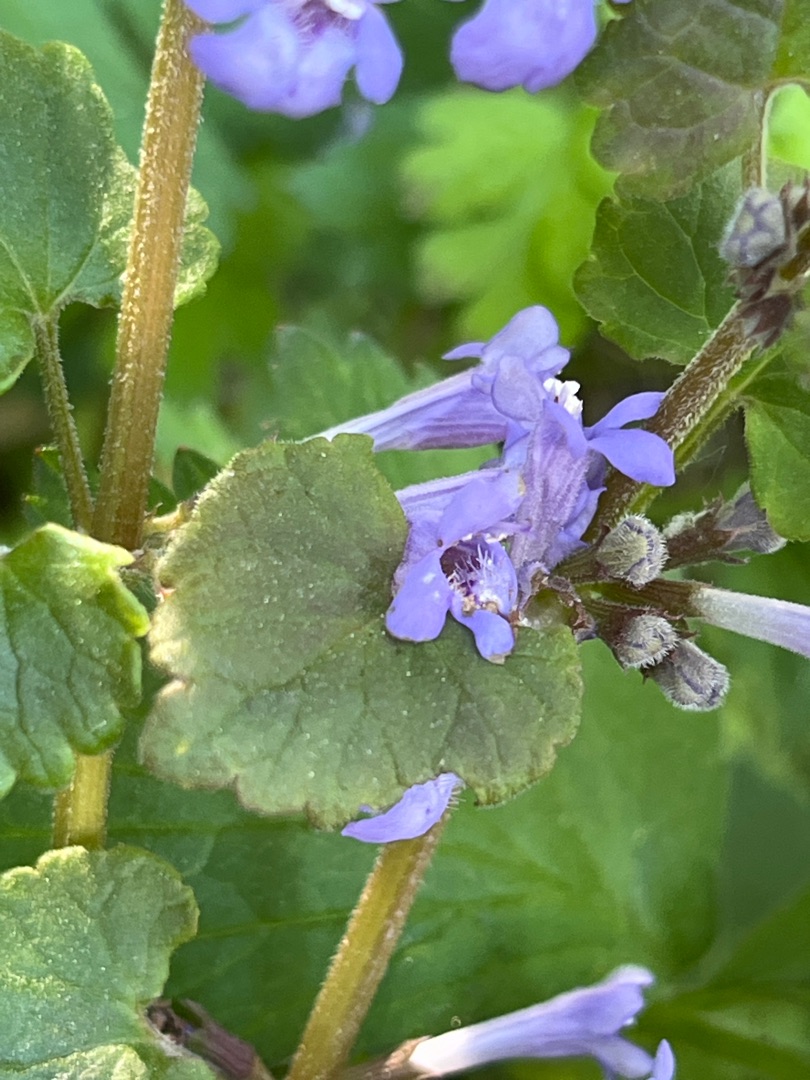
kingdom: Plantae
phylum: Tracheophyta
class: Magnoliopsida
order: Lamiales
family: Lamiaceae
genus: Glechoma
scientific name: Glechoma hederacea
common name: Korsknap
